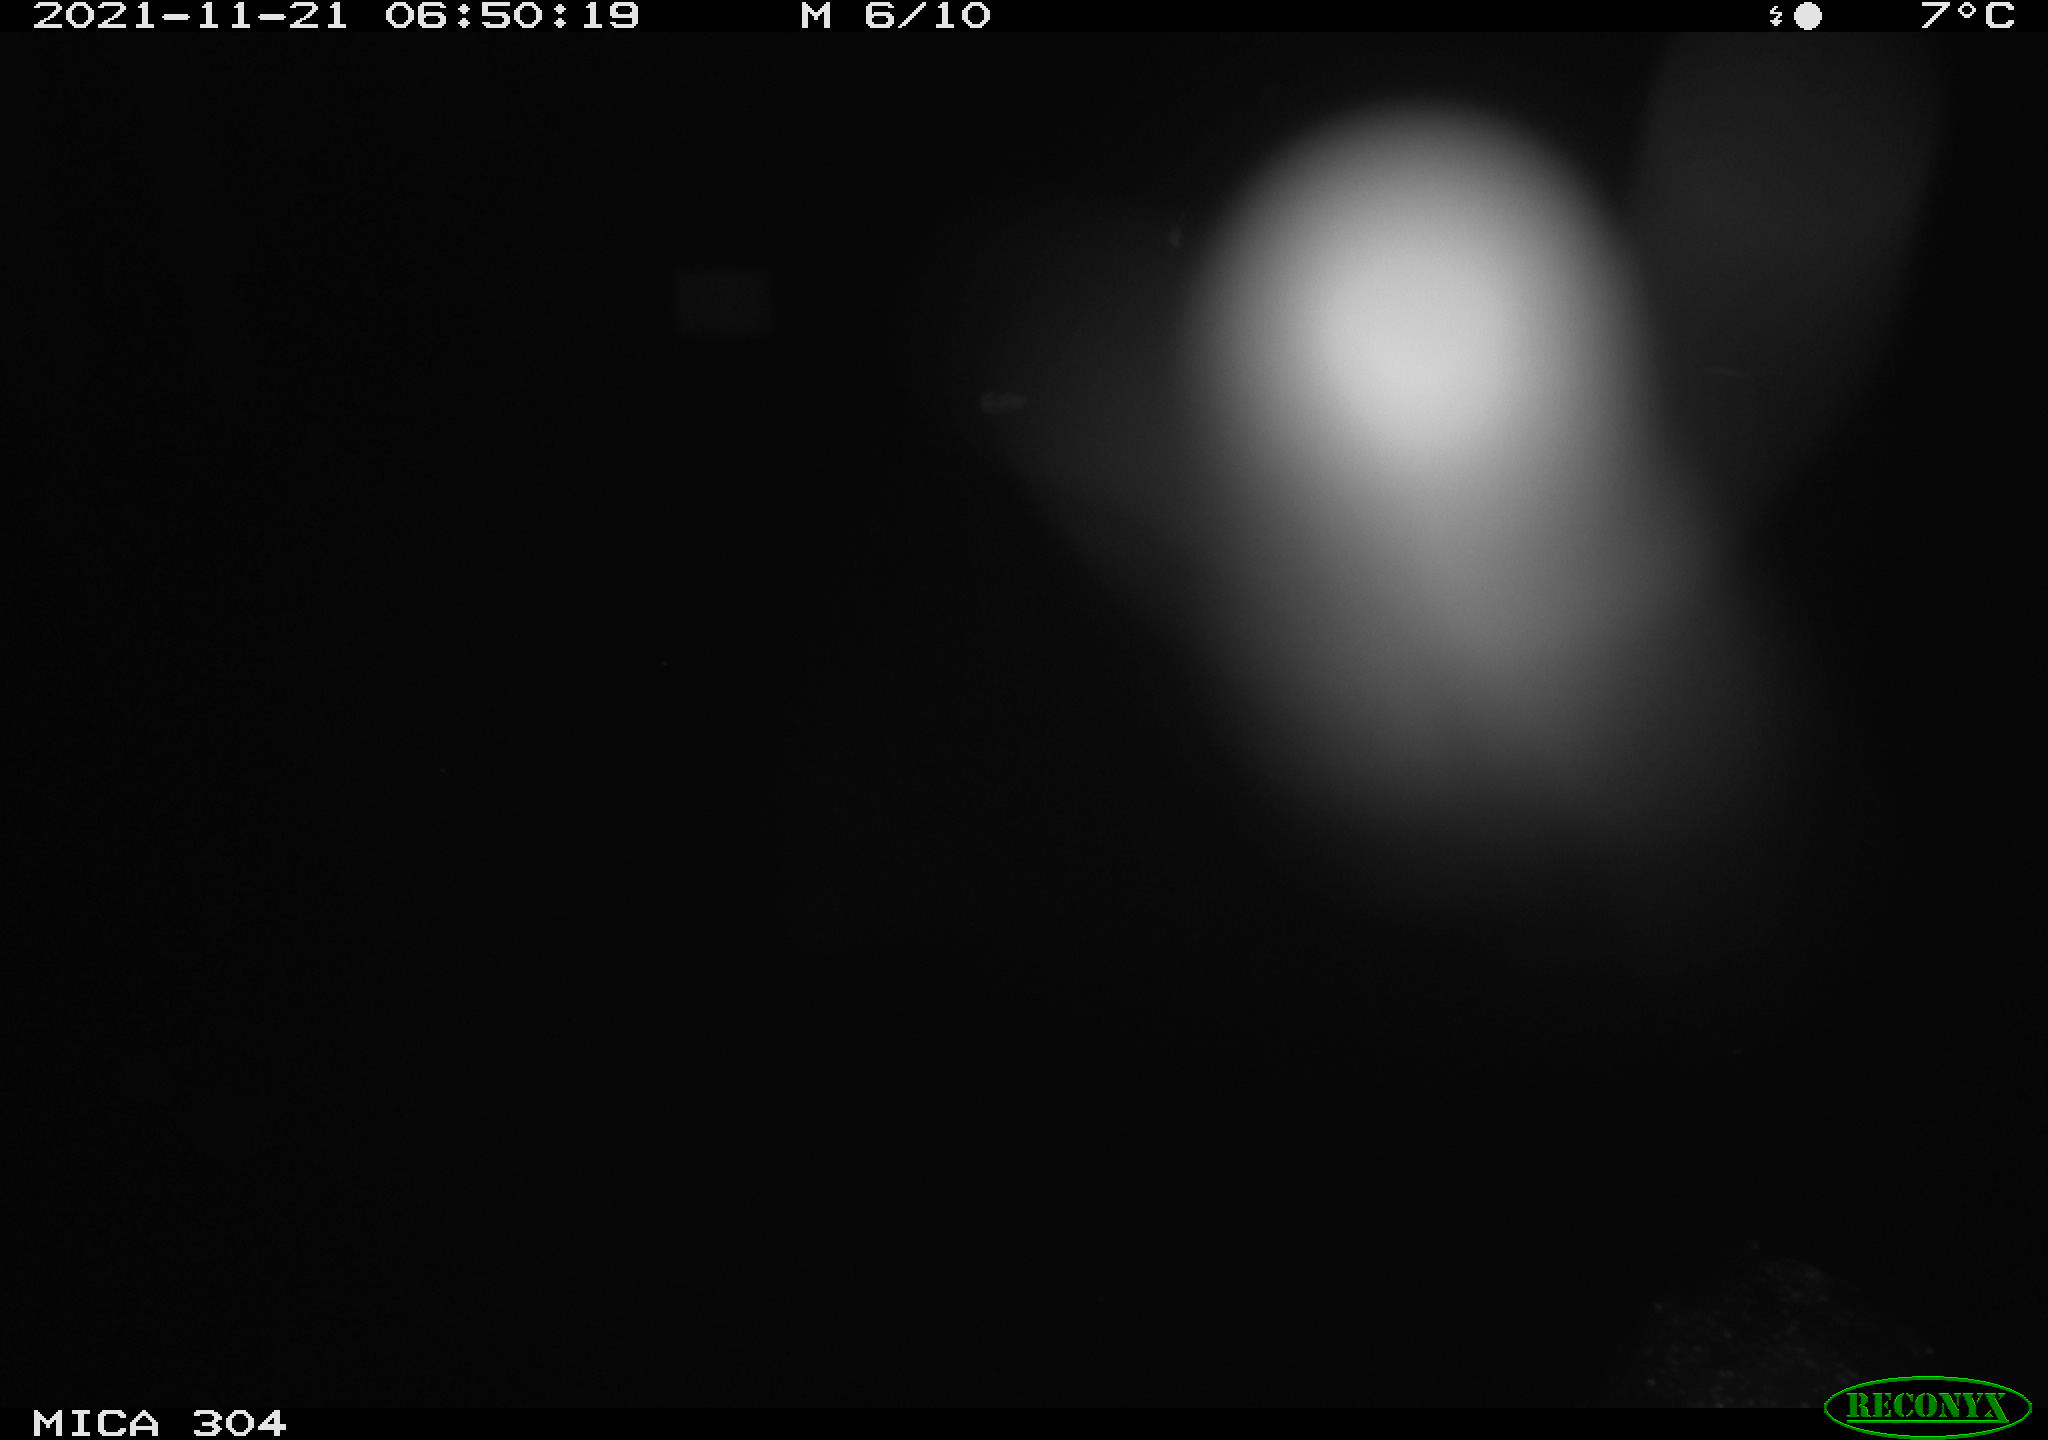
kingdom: Animalia
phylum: Chordata
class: Aves
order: Gruiformes
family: Rallidae
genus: Fulica
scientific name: Fulica atra
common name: Eurasian coot
